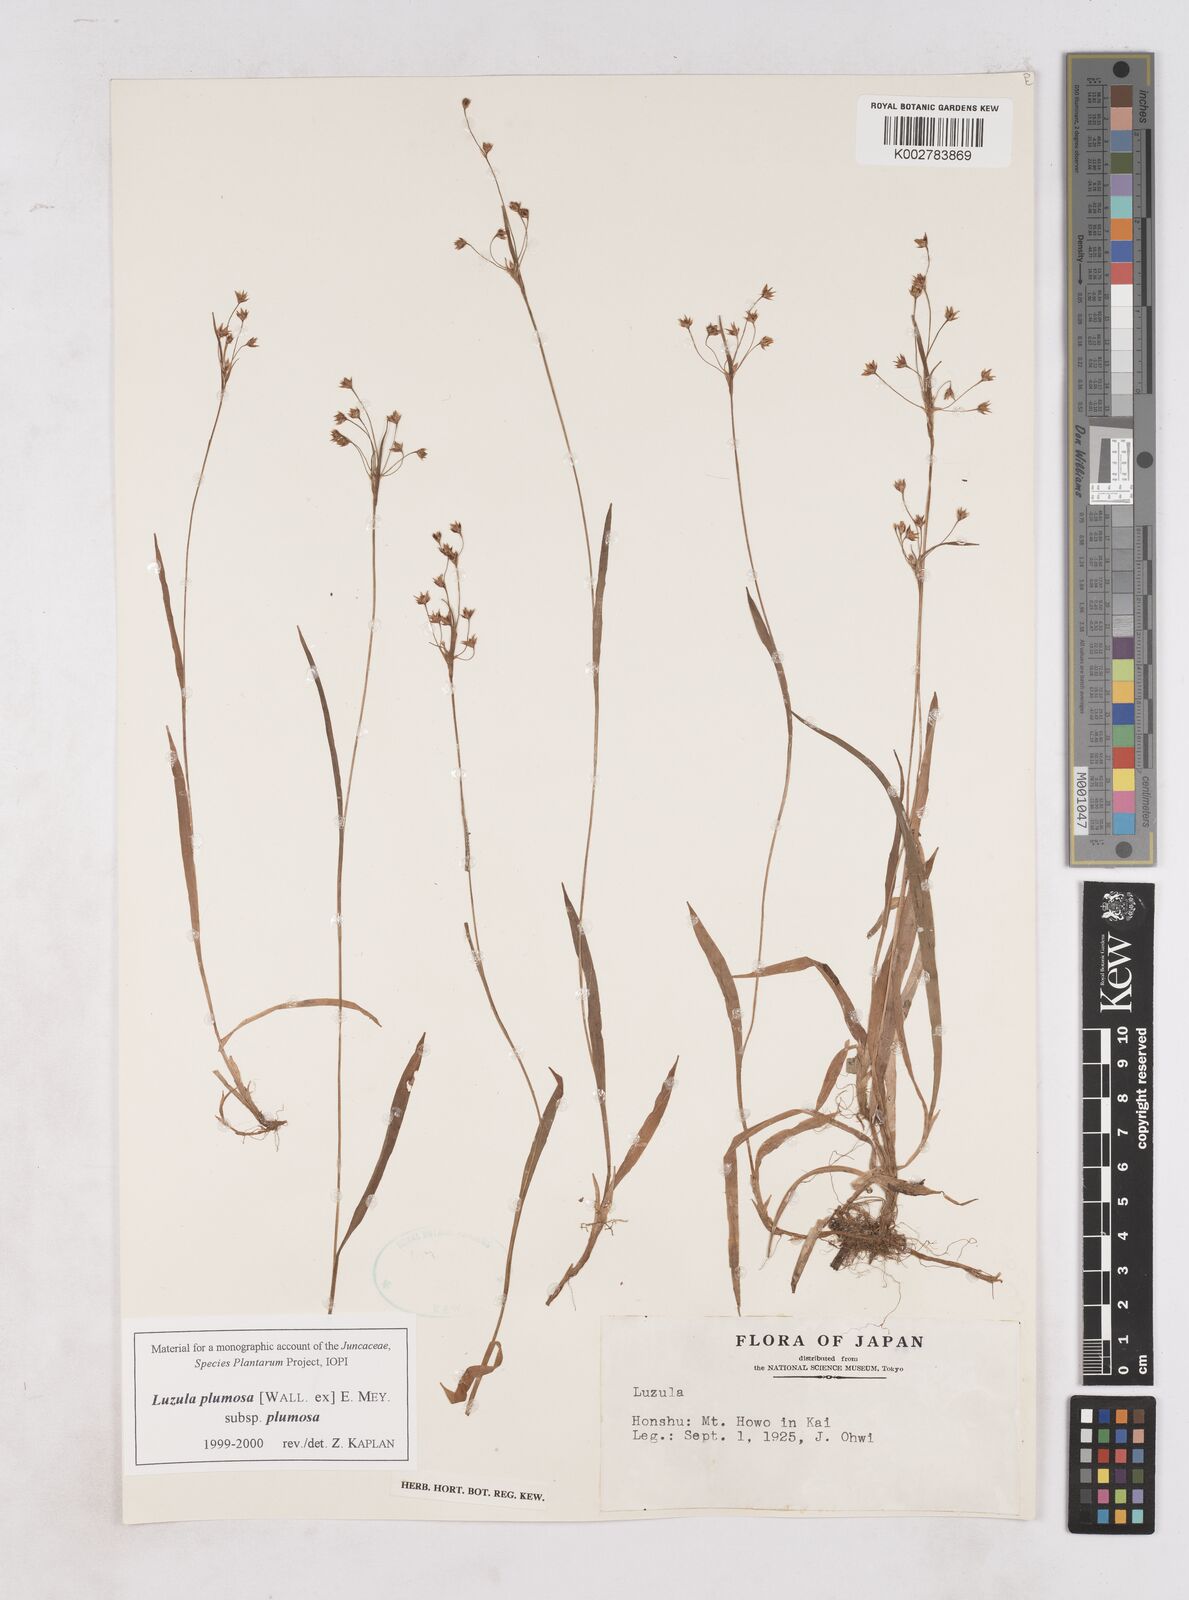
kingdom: Plantae
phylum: Tracheophyta
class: Liliopsida
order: Poales
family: Juncaceae
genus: Luzula
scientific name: Luzula plumosa
